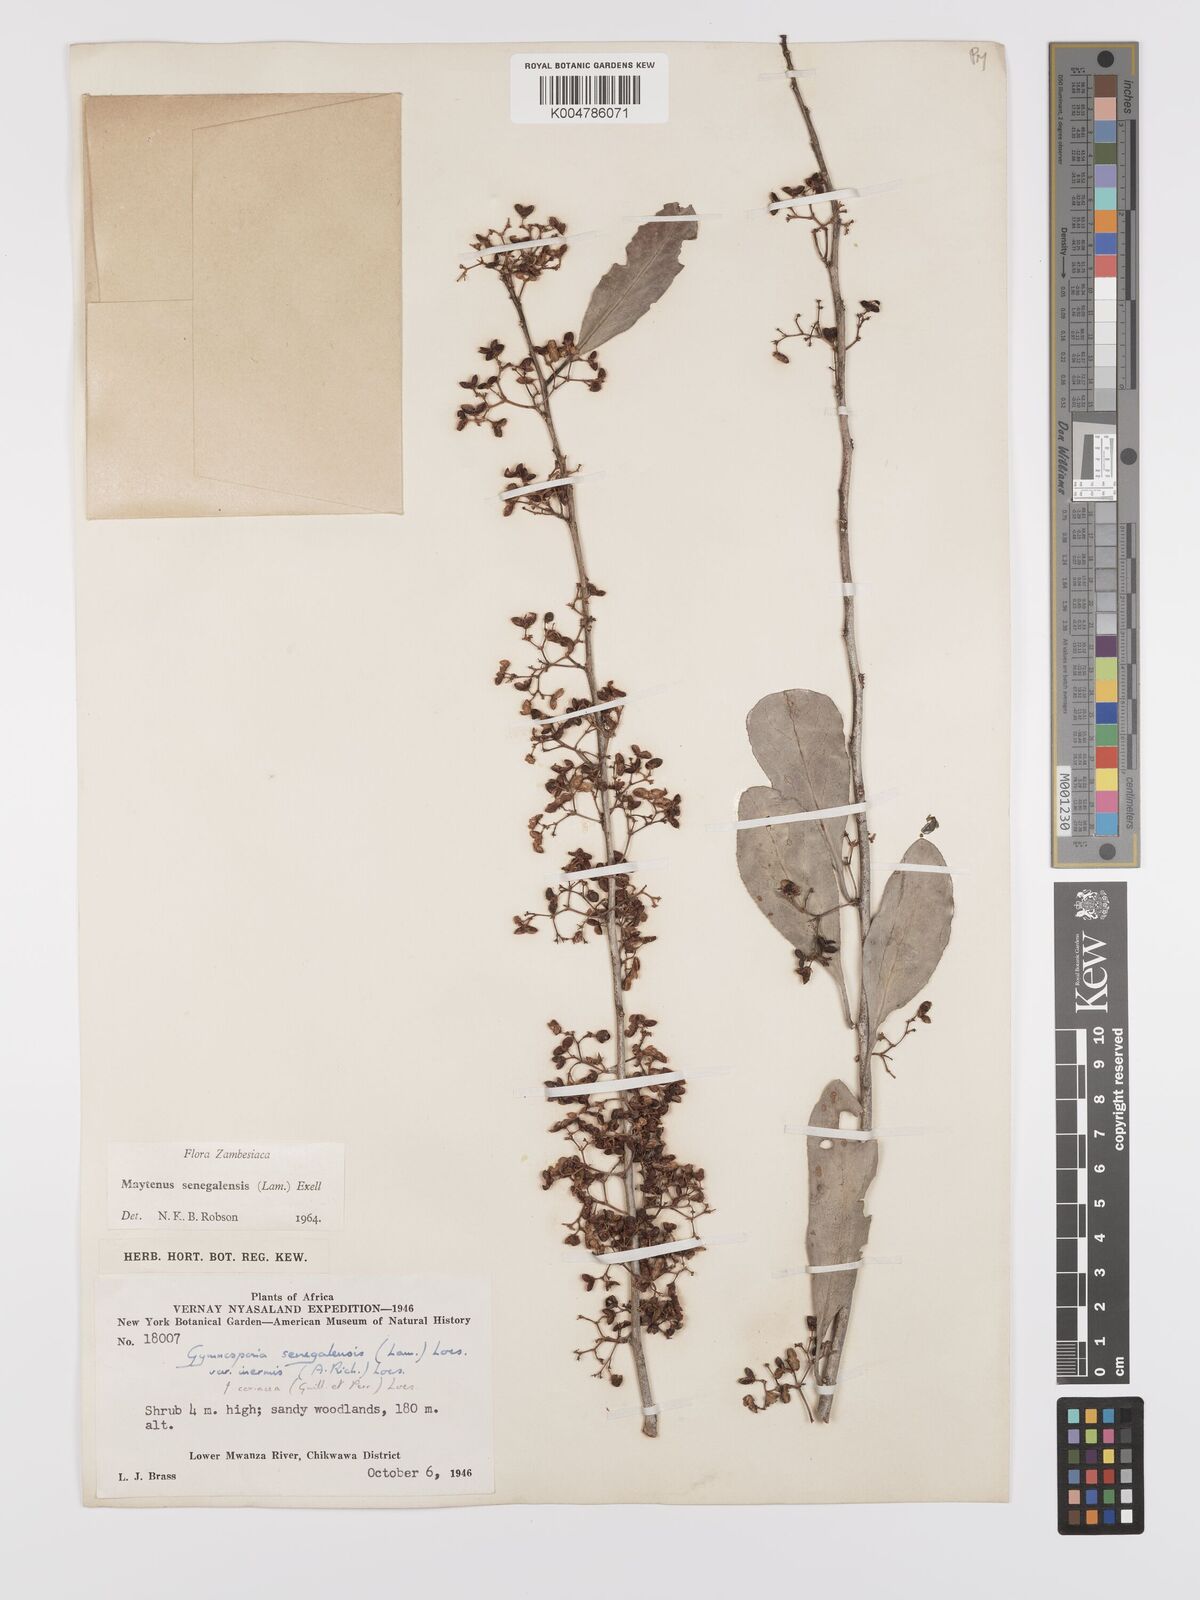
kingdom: Plantae
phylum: Tracheophyta
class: Magnoliopsida
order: Celastrales
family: Celastraceae
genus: Gymnosporia
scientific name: Gymnosporia senegalensis
